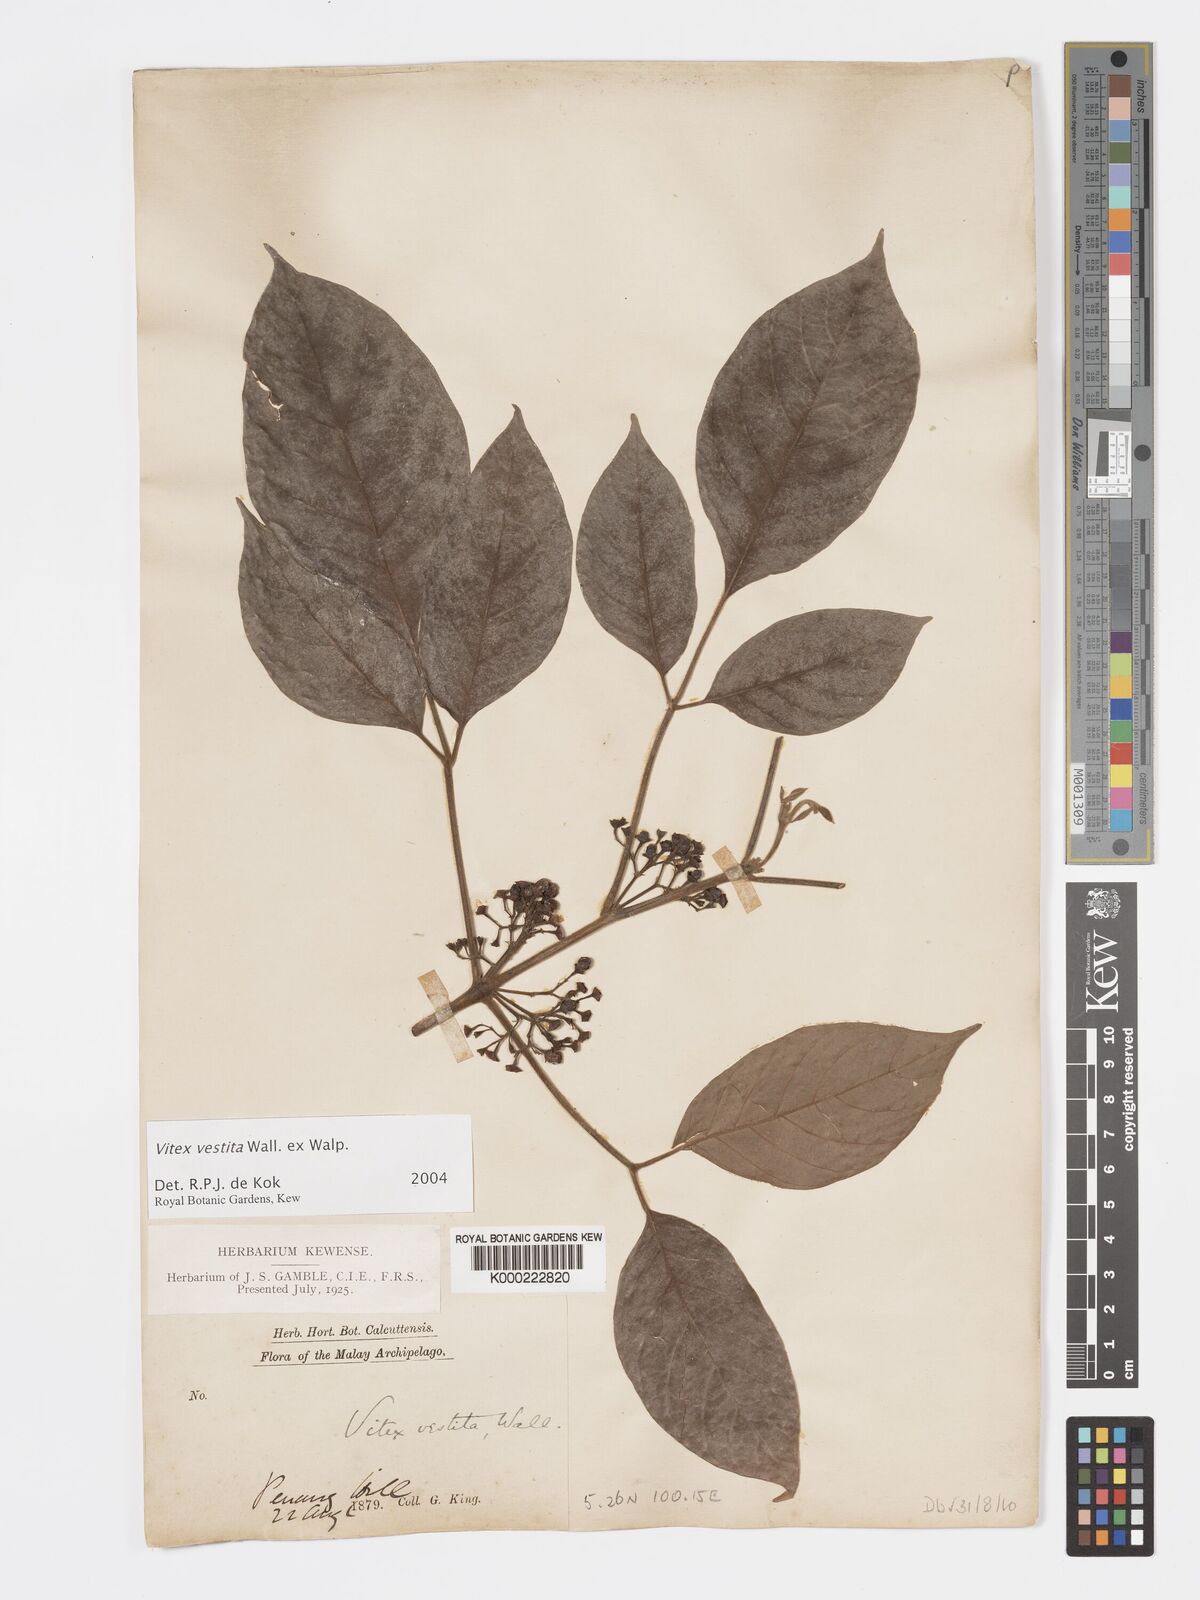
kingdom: Plantae
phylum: Tracheophyta
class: Magnoliopsida
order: Lamiales
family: Lamiaceae
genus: Vitex
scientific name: Vitex vestita
